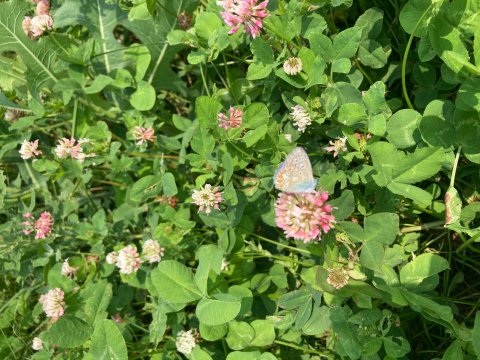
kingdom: Animalia
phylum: Arthropoda
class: Insecta
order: Lepidoptera
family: Lycaenidae
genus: Polyommatus
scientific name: Polyommatus icarus
